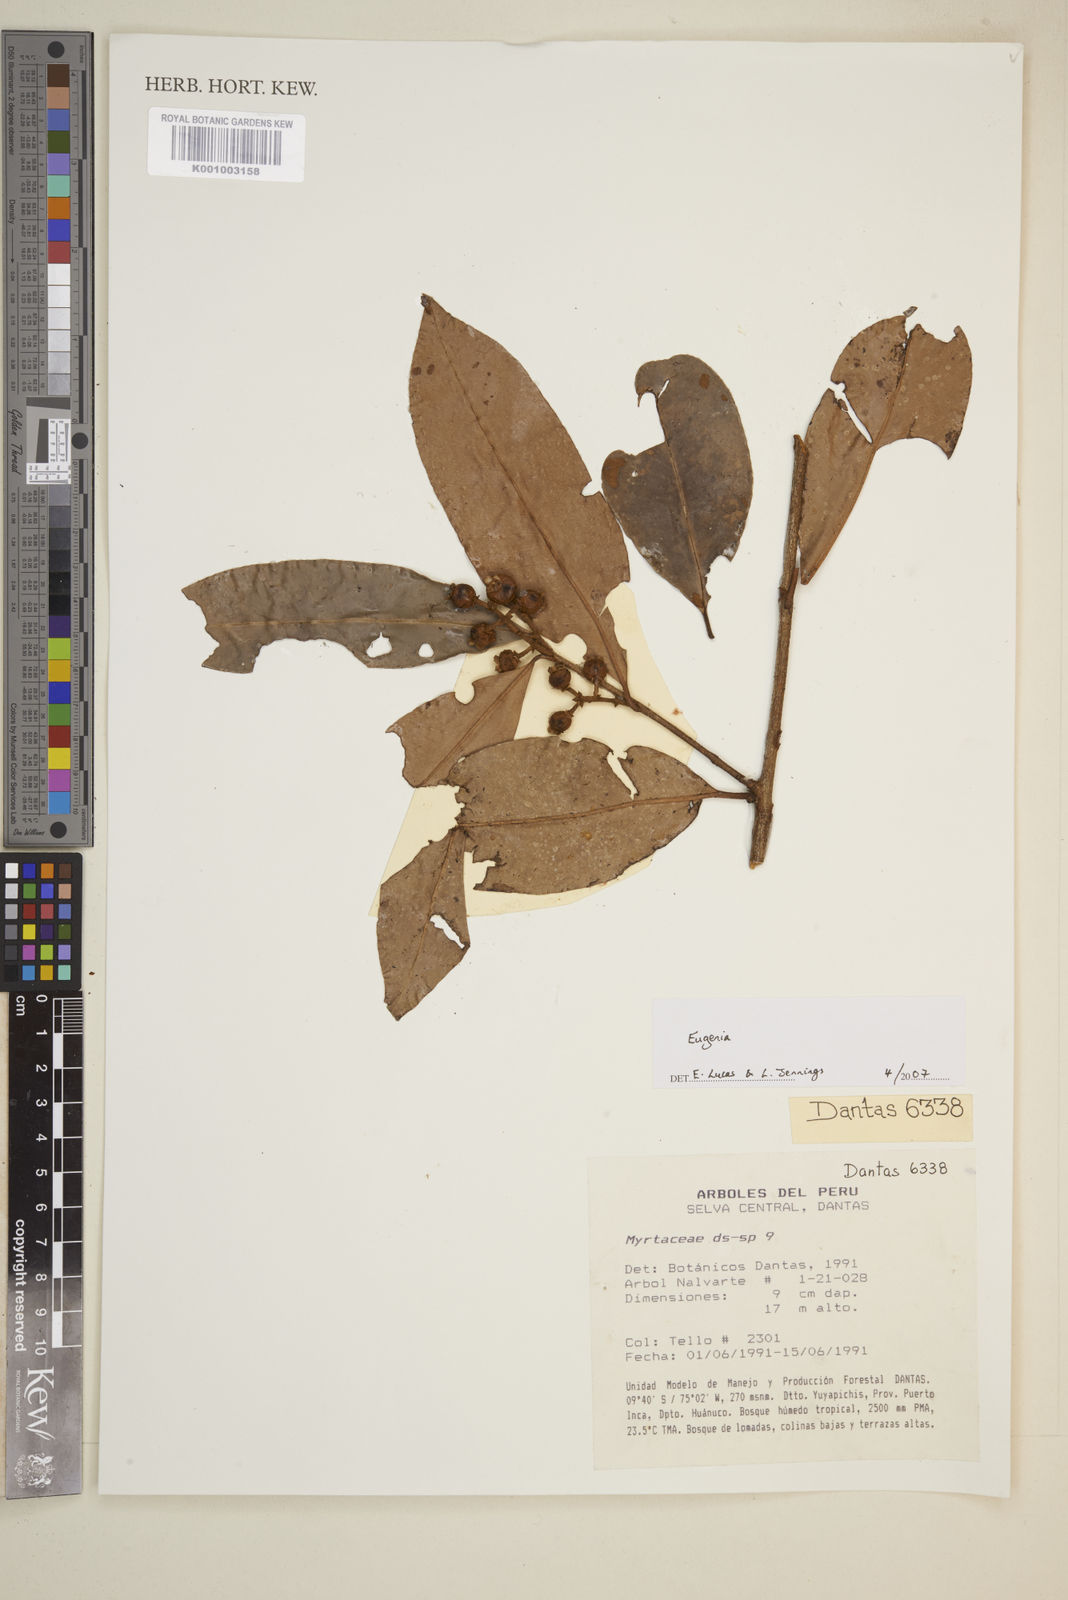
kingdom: Plantae
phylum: Tracheophyta
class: Magnoliopsida
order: Myrtales
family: Myrtaceae
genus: Eugenia
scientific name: Eugenia
